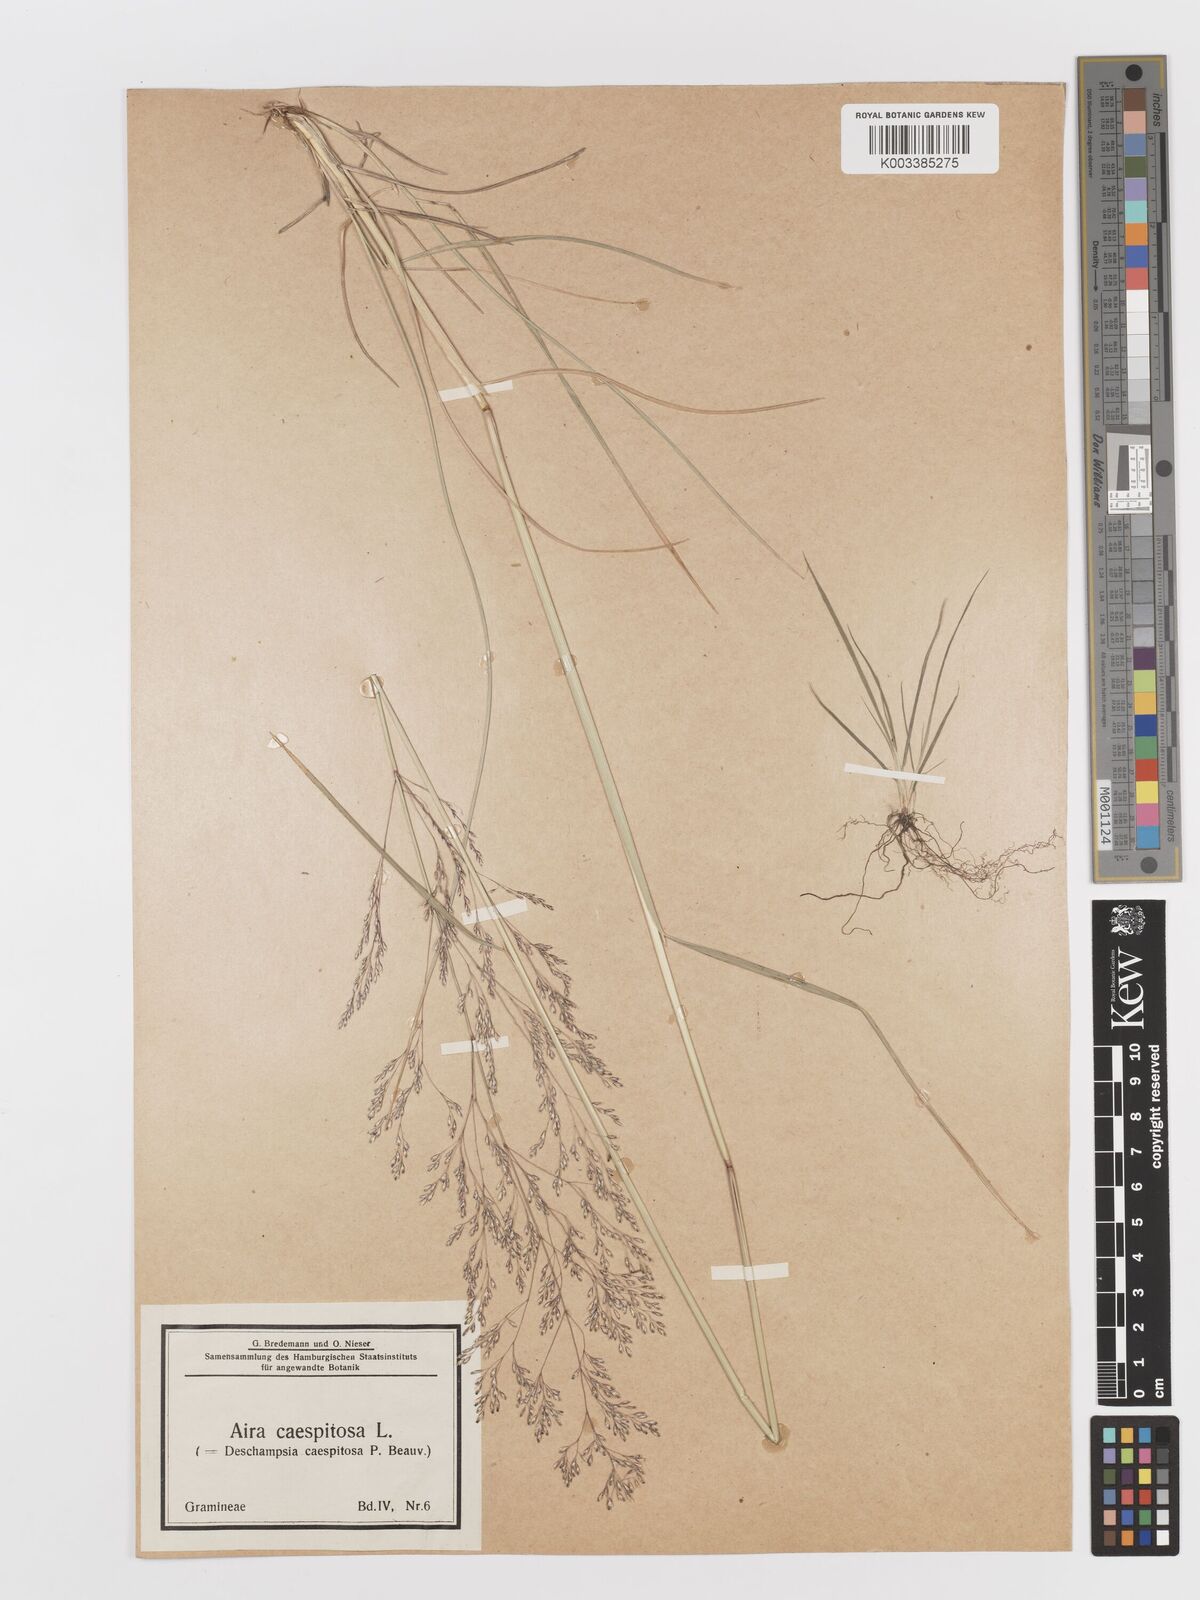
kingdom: Plantae
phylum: Tracheophyta
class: Liliopsida
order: Poales
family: Poaceae
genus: Deschampsia
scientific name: Deschampsia cespitosa
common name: Tufted hair-grass
